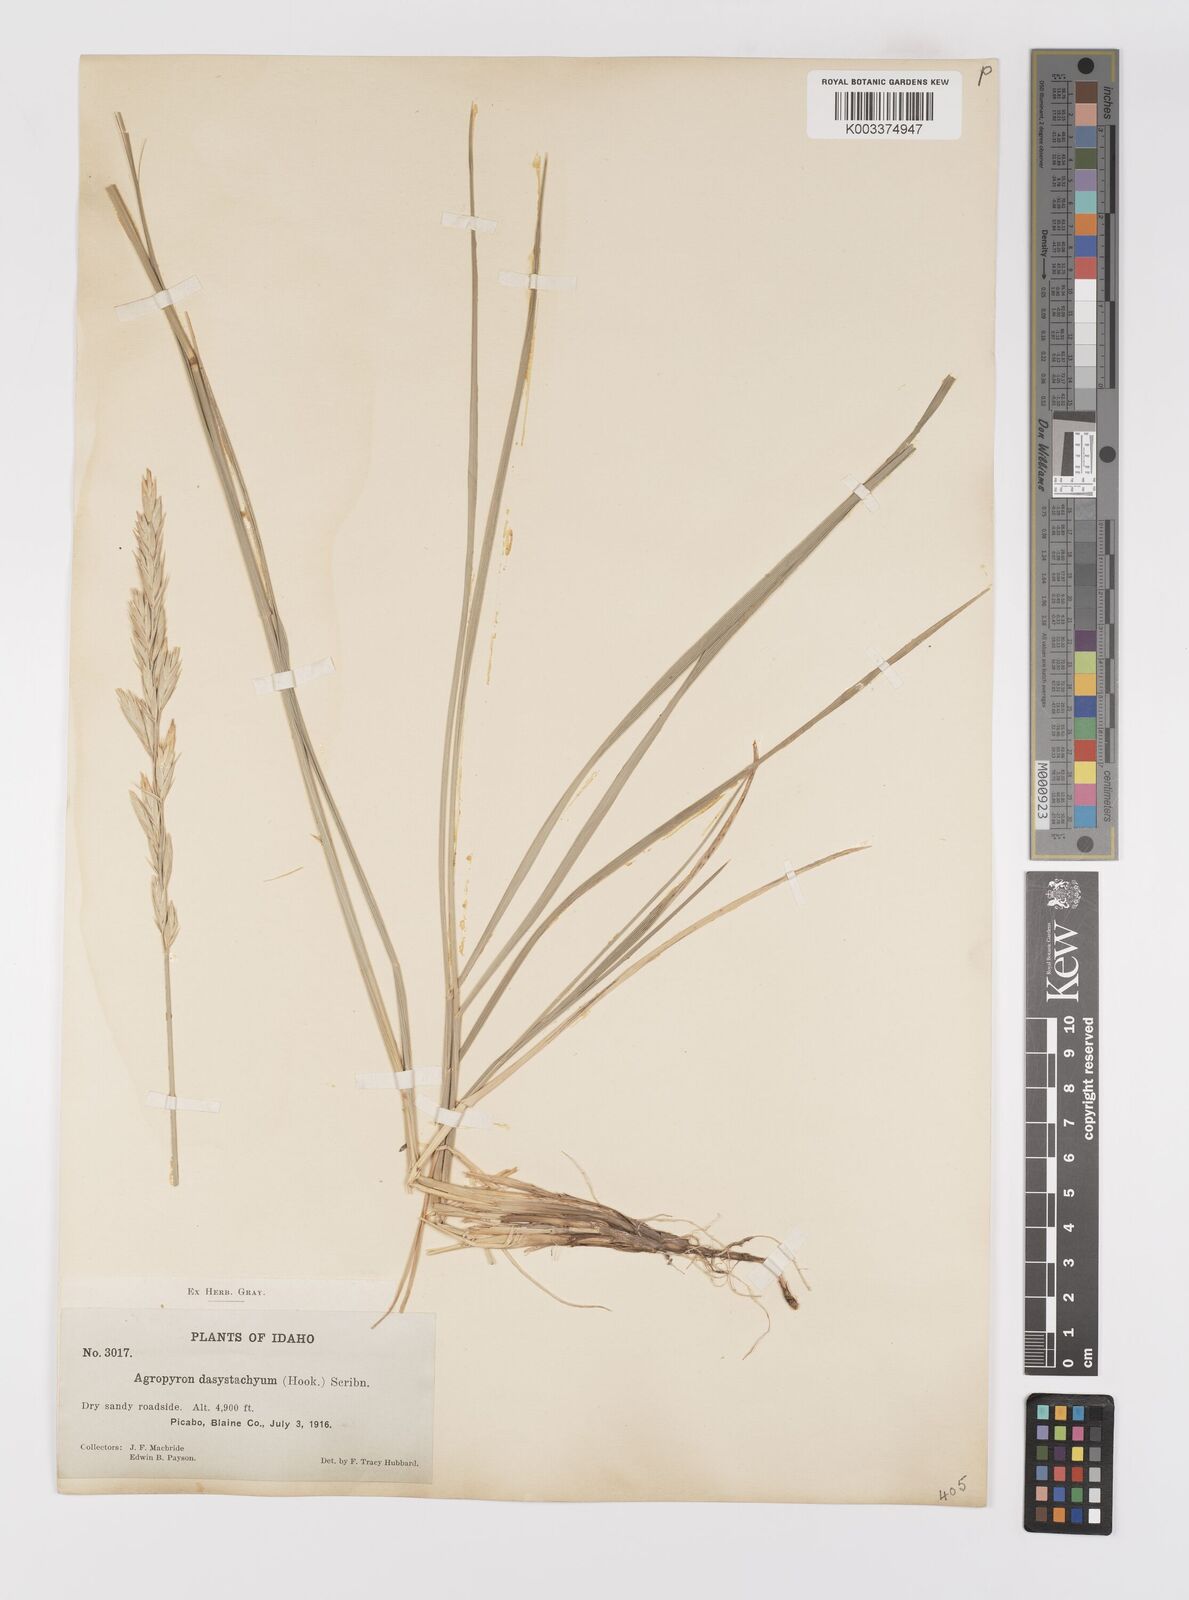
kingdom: Plantae
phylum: Tracheophyta
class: Liliopsida
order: Poales
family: Poaceae
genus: Elymus
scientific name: Elymus lanceolatus
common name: Thick-spike wheatgrass
